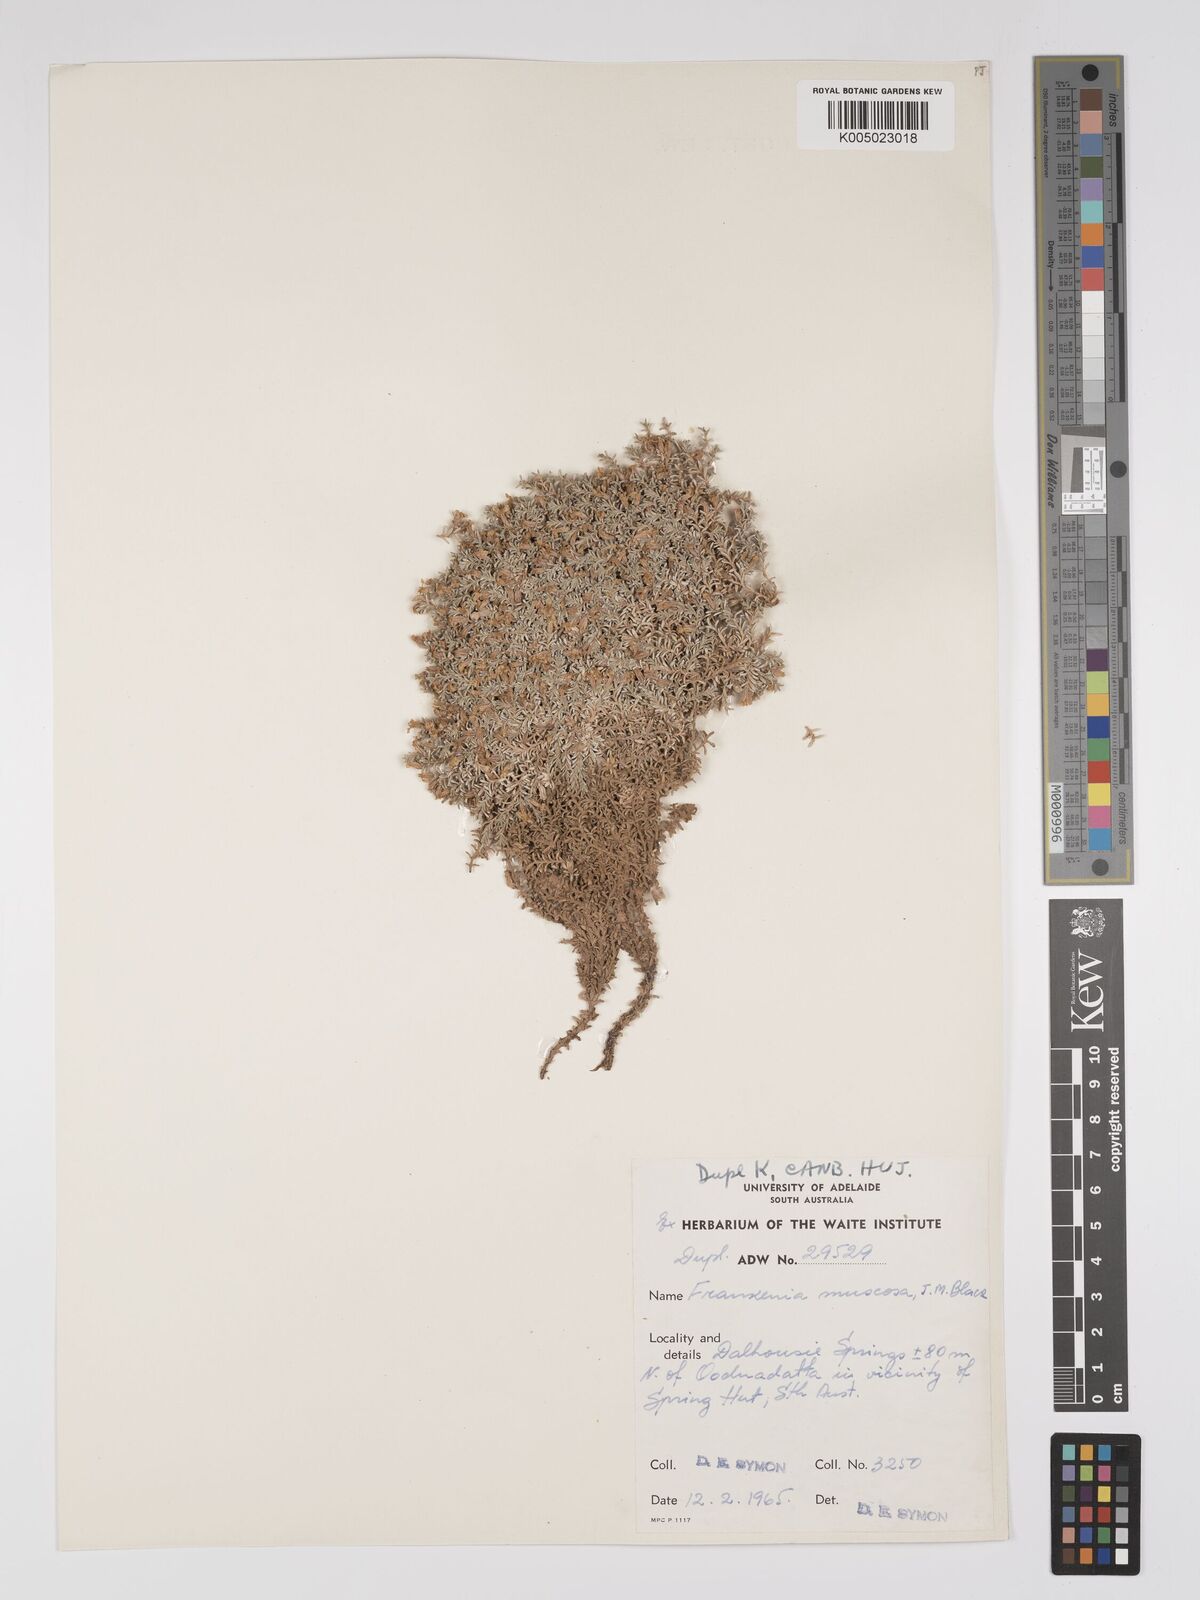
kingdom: Plantae
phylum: Tracheophyta
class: Magnoliopsida
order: Caryophyllales
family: Frankeniaceae
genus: Frankenia
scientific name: Frankenia muscosa
